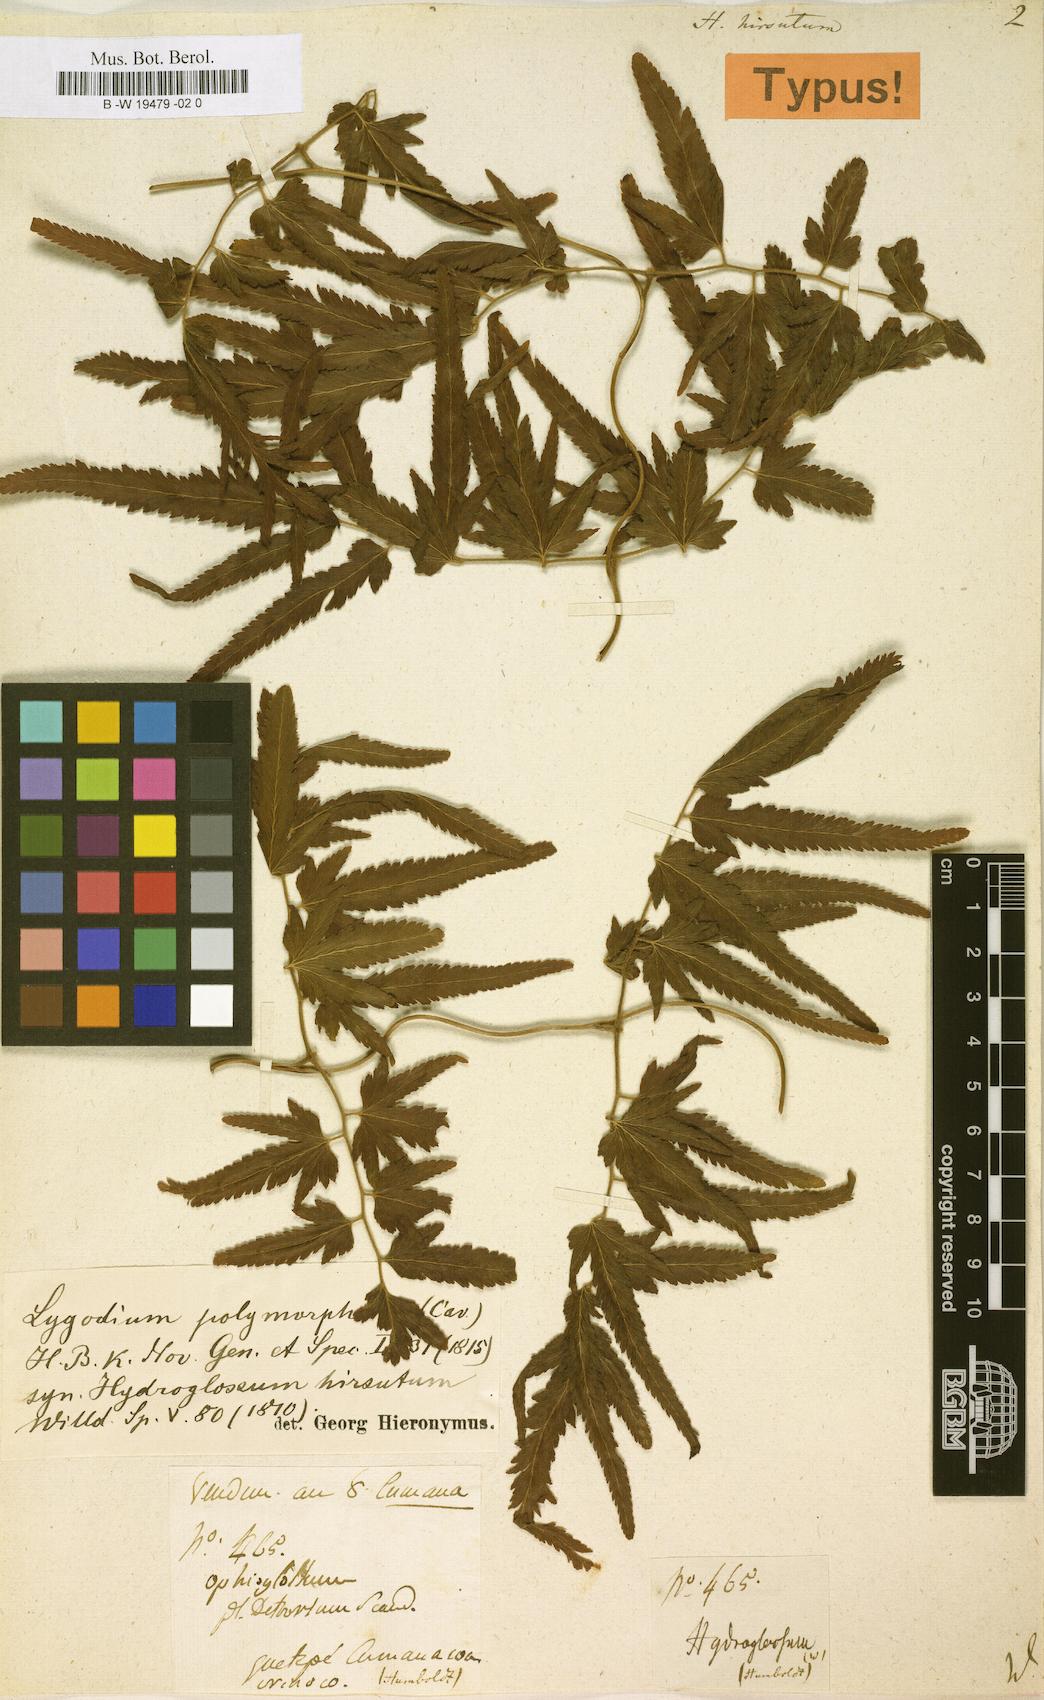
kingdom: Plantae
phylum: Tracheophyta
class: Polypodiopsida
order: Schizaeales
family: Lygodiaceae
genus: Lygodium
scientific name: Lygodium venustum
